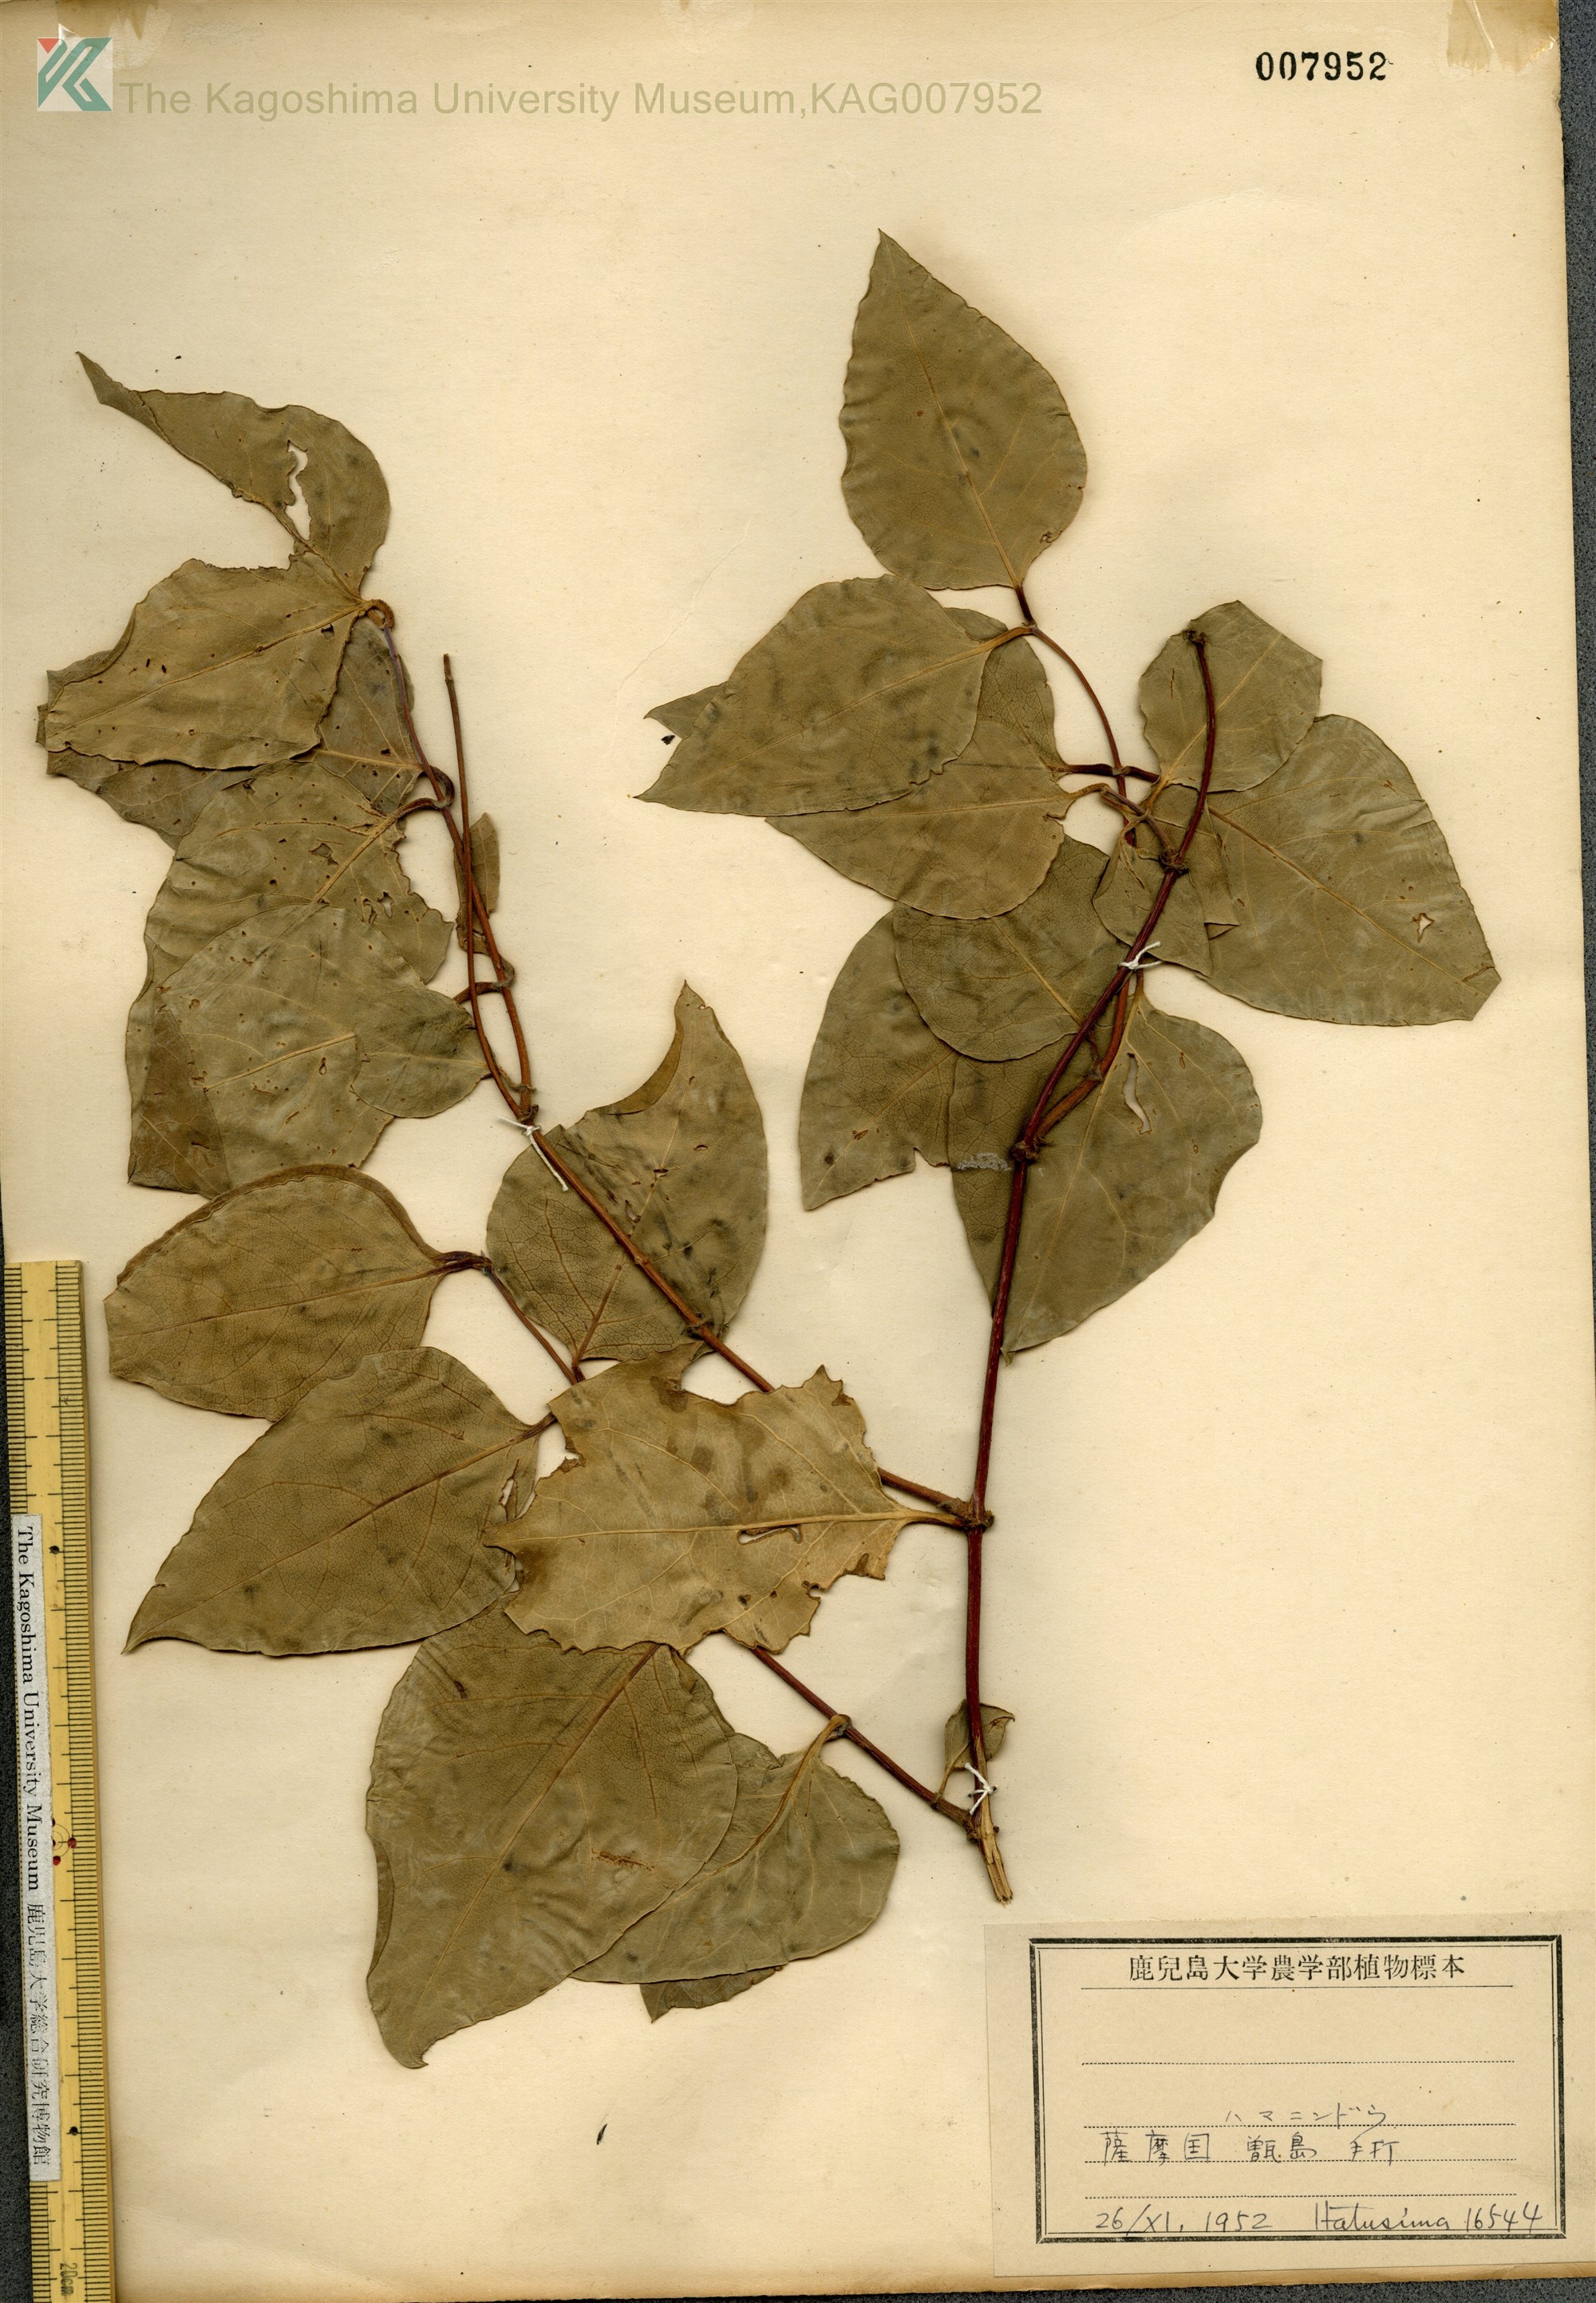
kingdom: Plantae
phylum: Tracheophyta
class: Magnoliopsida
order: Dipsacales
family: Caprifoliaceae
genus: Lonicera
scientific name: Lonicera affinis
